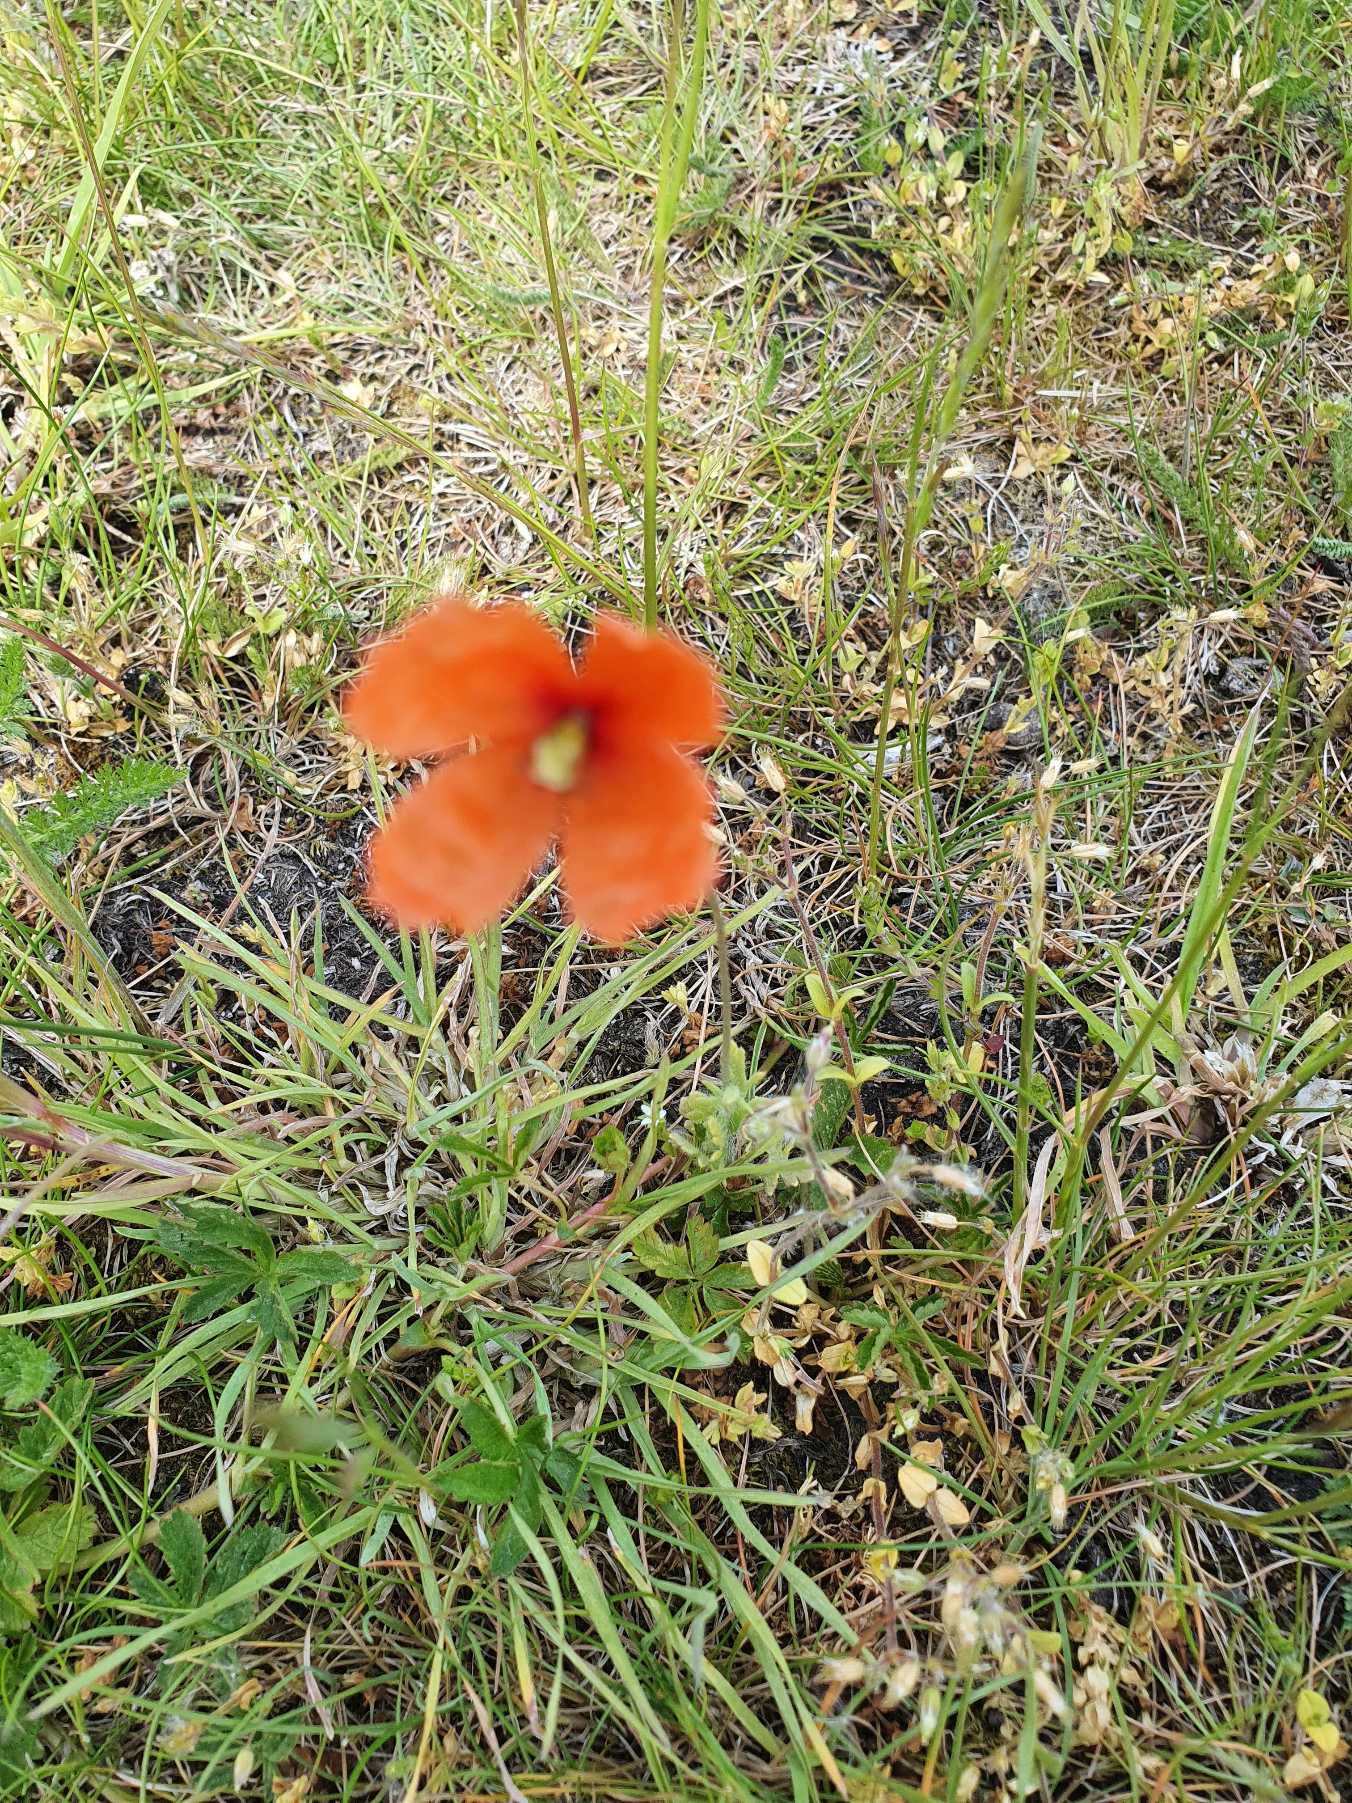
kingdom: Plantae
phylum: Tracheophyta
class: Magnoliopsida
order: Ranunculales
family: Papaveraceae
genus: Papaver
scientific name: Papaver
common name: Valmueslægten
